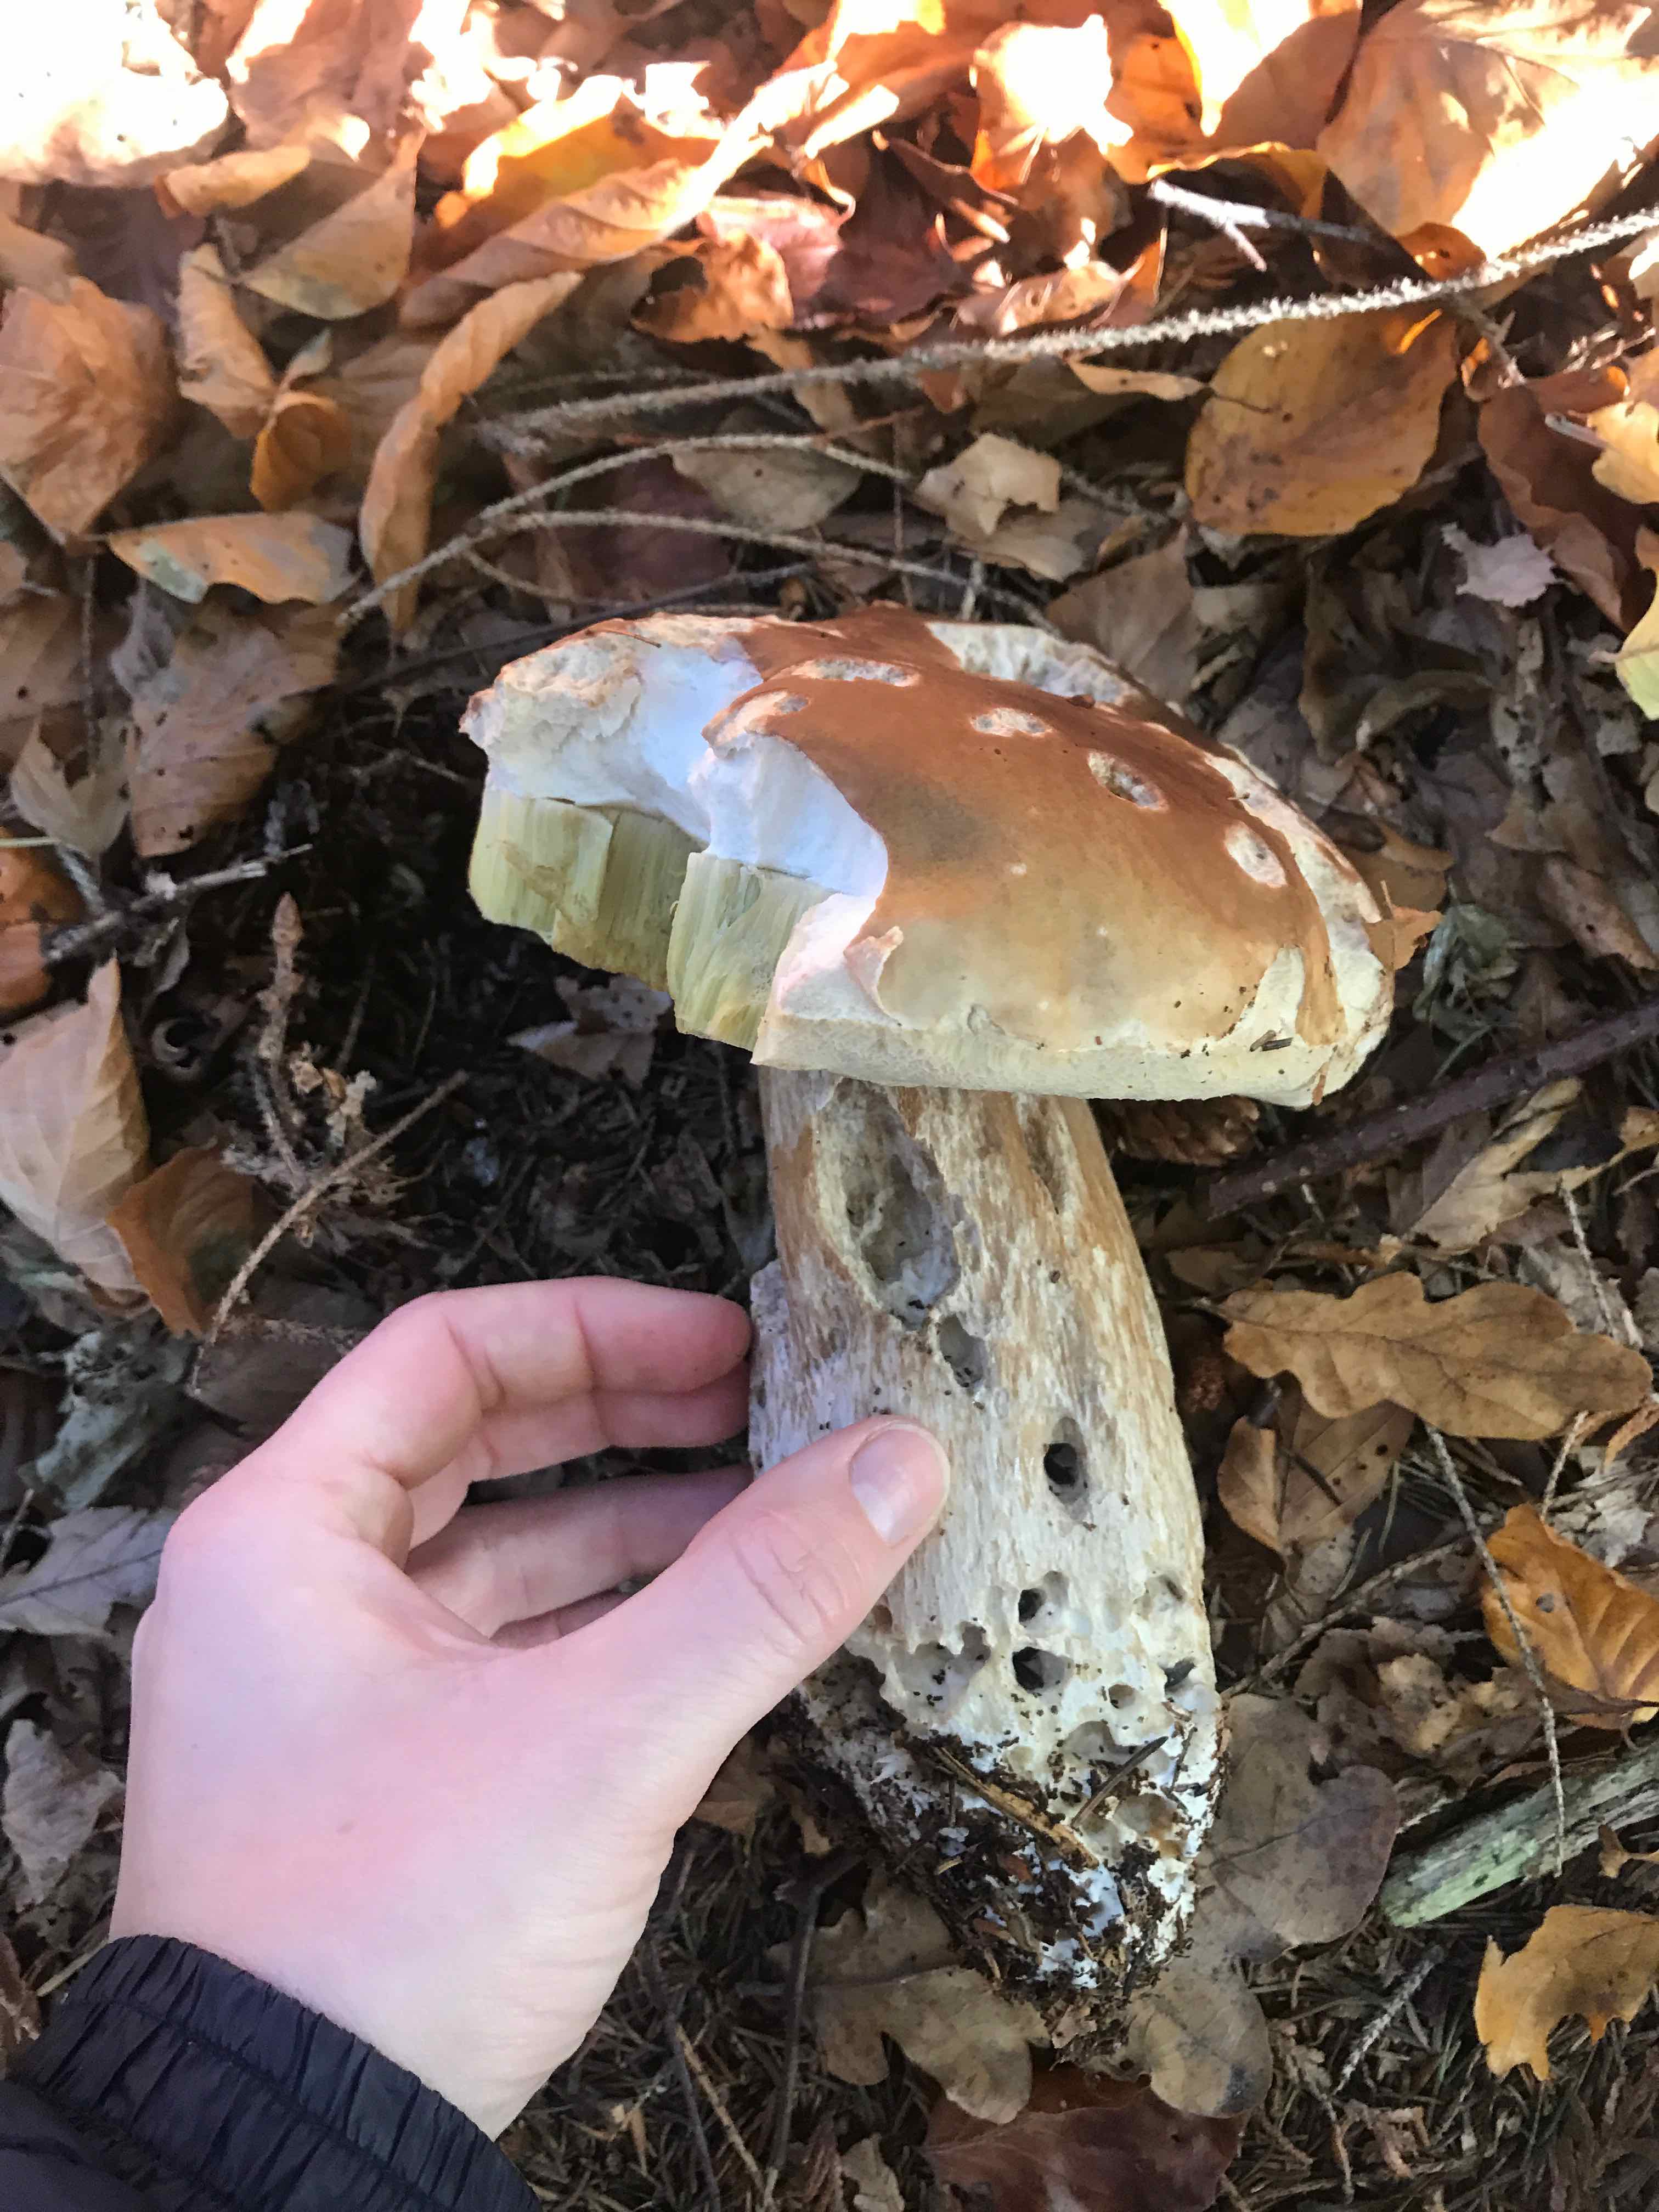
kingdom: Fungi
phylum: Basidiomycota
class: Agaricomycetes
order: Boletales
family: Boletaceae
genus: Boletus
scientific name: Boletus edulis
